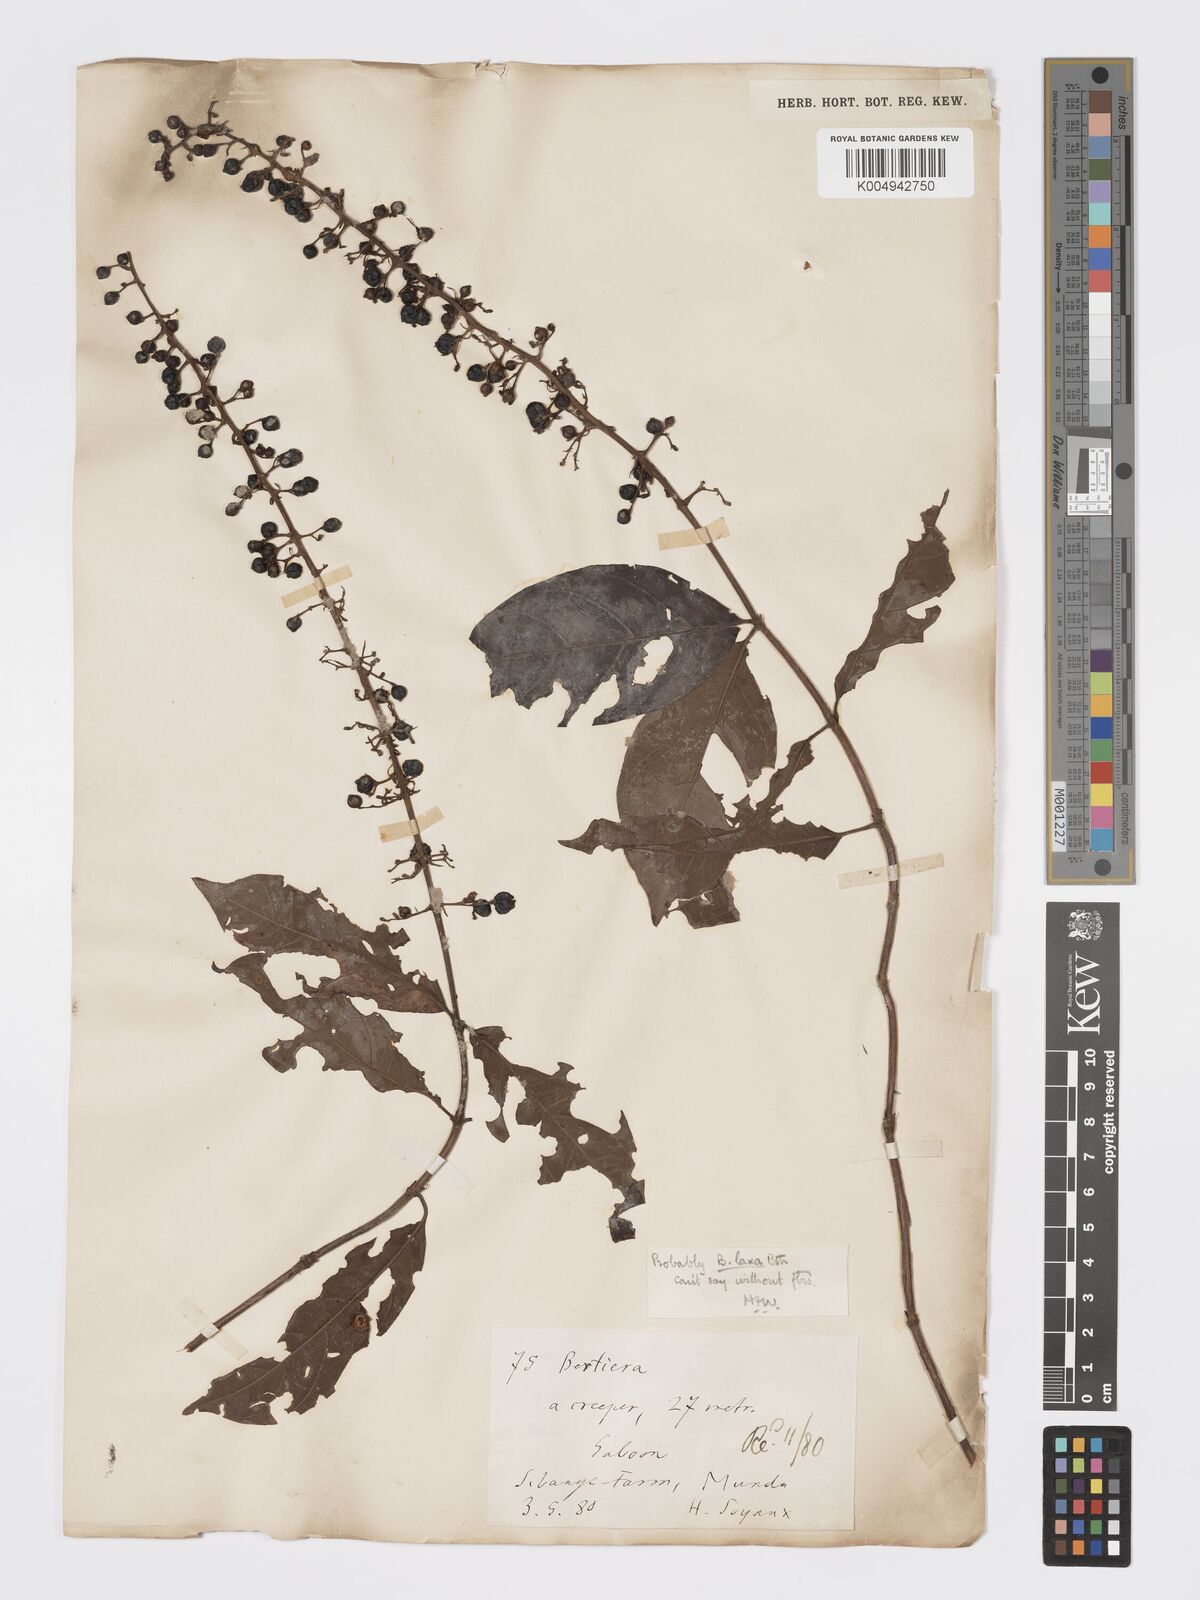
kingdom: Plantae
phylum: Tracheophyta
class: Magnoliopsida
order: Gentianales
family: Rubiaceae
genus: Bertiera
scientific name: Bertiera bracteolata
